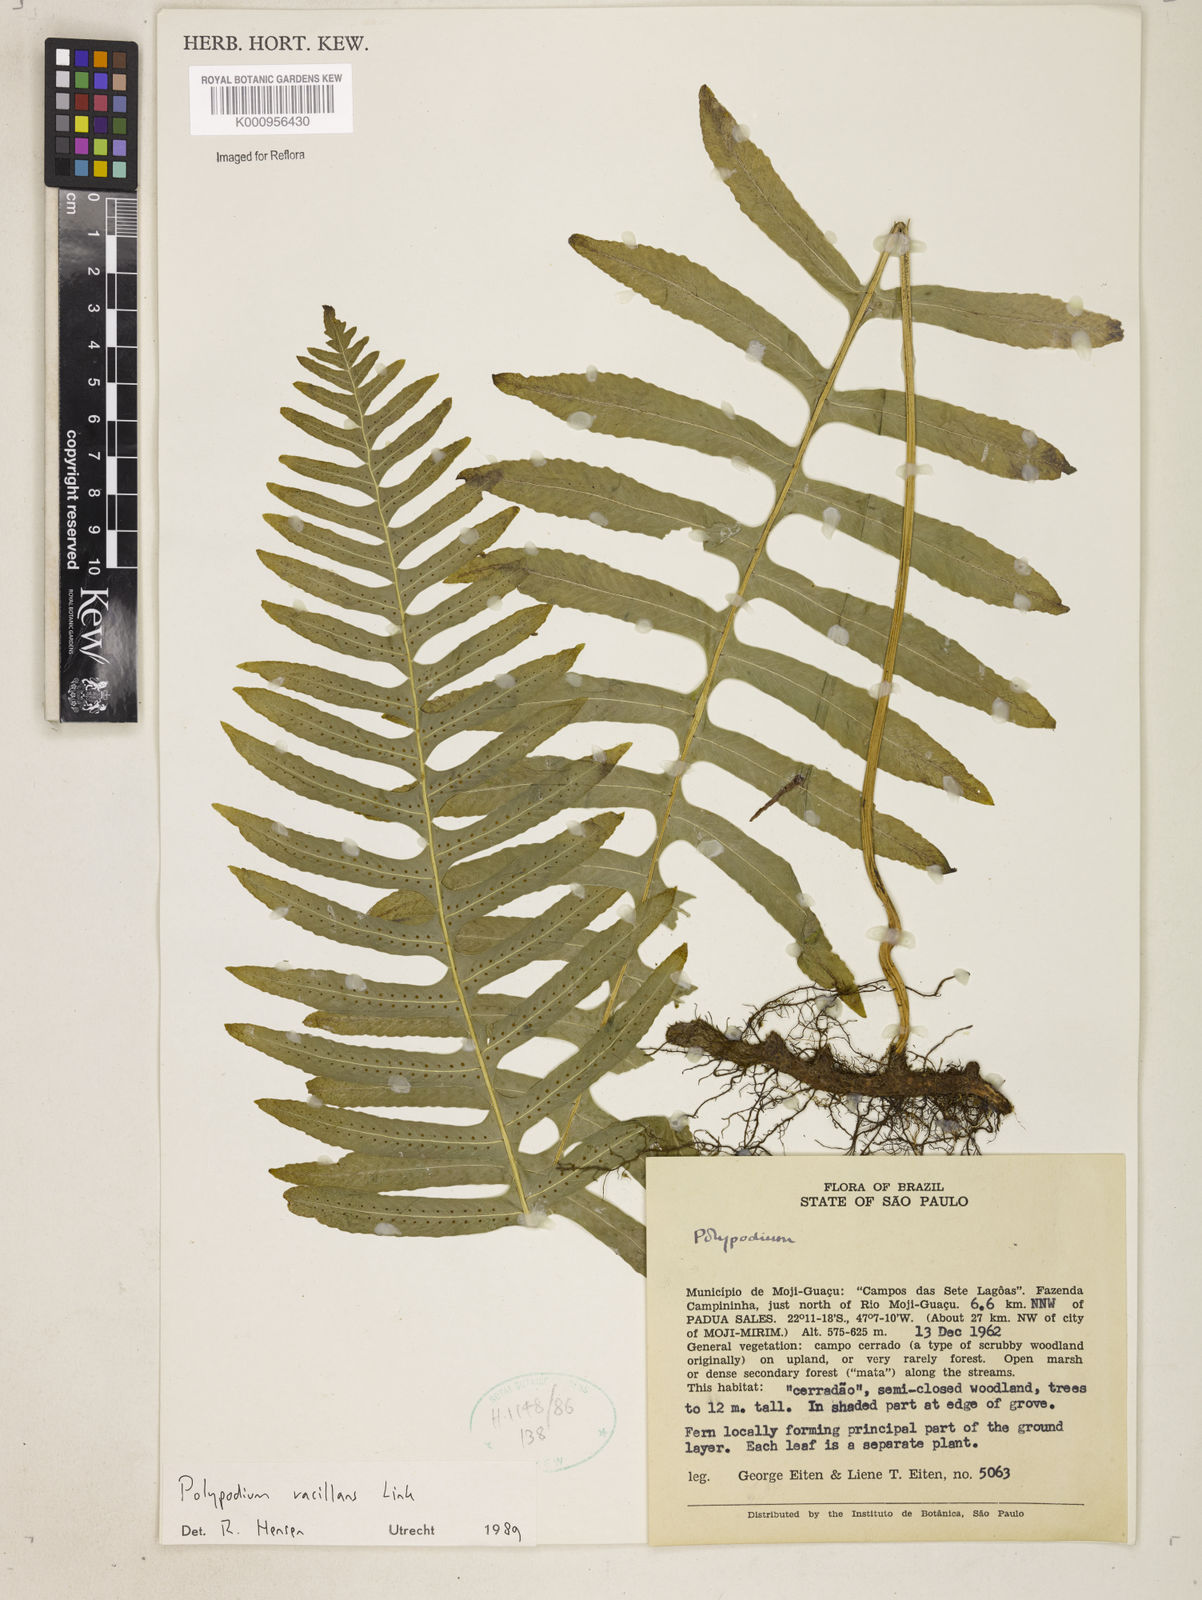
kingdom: Plantae
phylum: Tracheophyta
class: Polypodiopsida
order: Polypodiales
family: Polypodiaceae
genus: Serpocaulon
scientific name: Serpocaulon vacillans
